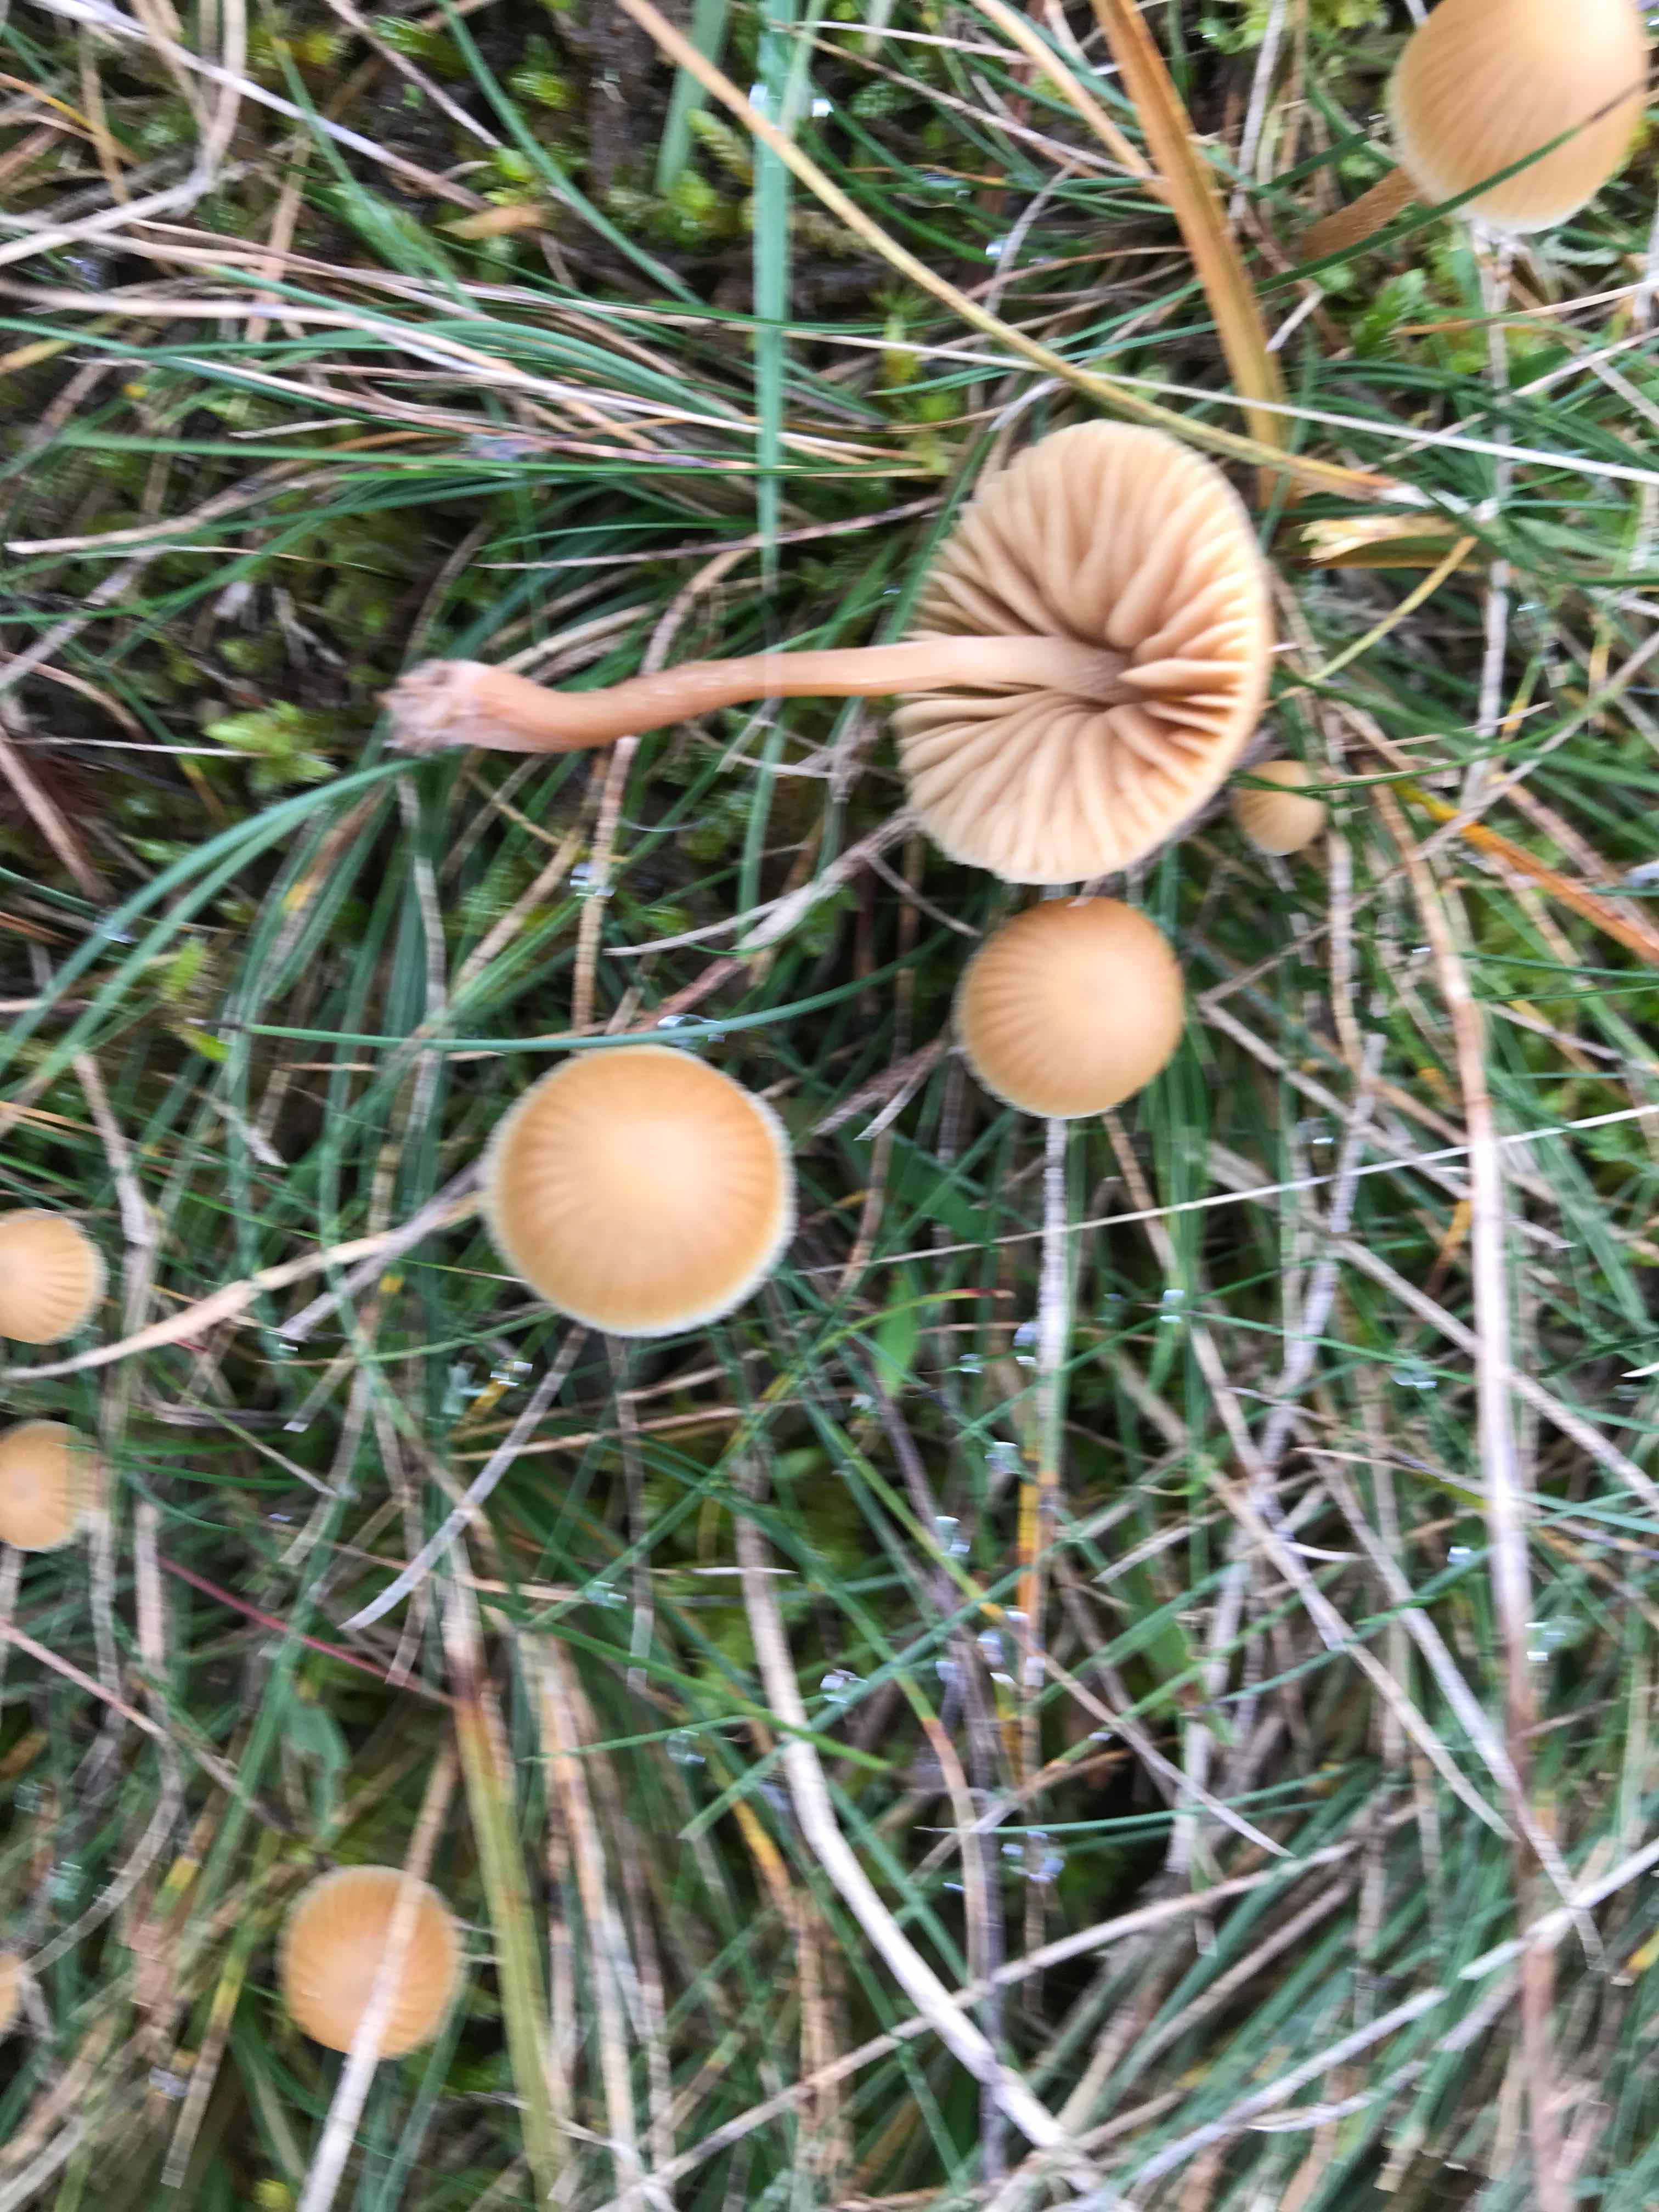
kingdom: Fungi
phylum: Basidiomycota
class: Agaricomycetes
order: Agaricales
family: Hymenogastraceae
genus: Galerina
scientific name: Galerina
